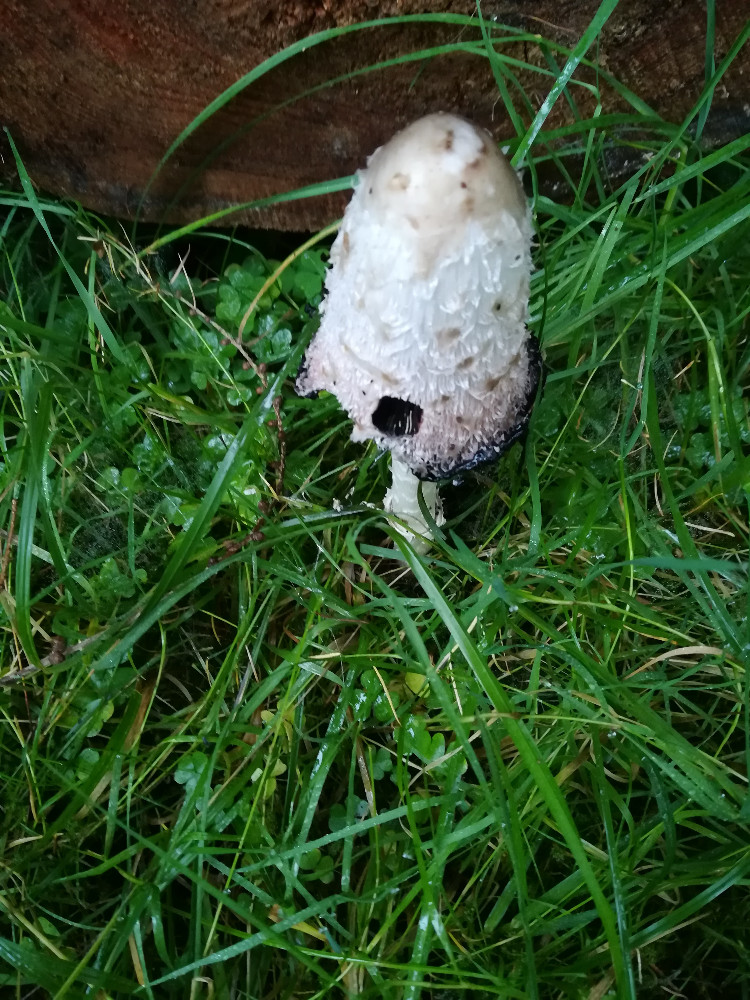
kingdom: Fungi
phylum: Basidiomycota
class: Agaricomycetes
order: Agaricales
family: Agaricaceae
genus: Coprinus
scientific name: Coprinus comatus
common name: stor parykhat
